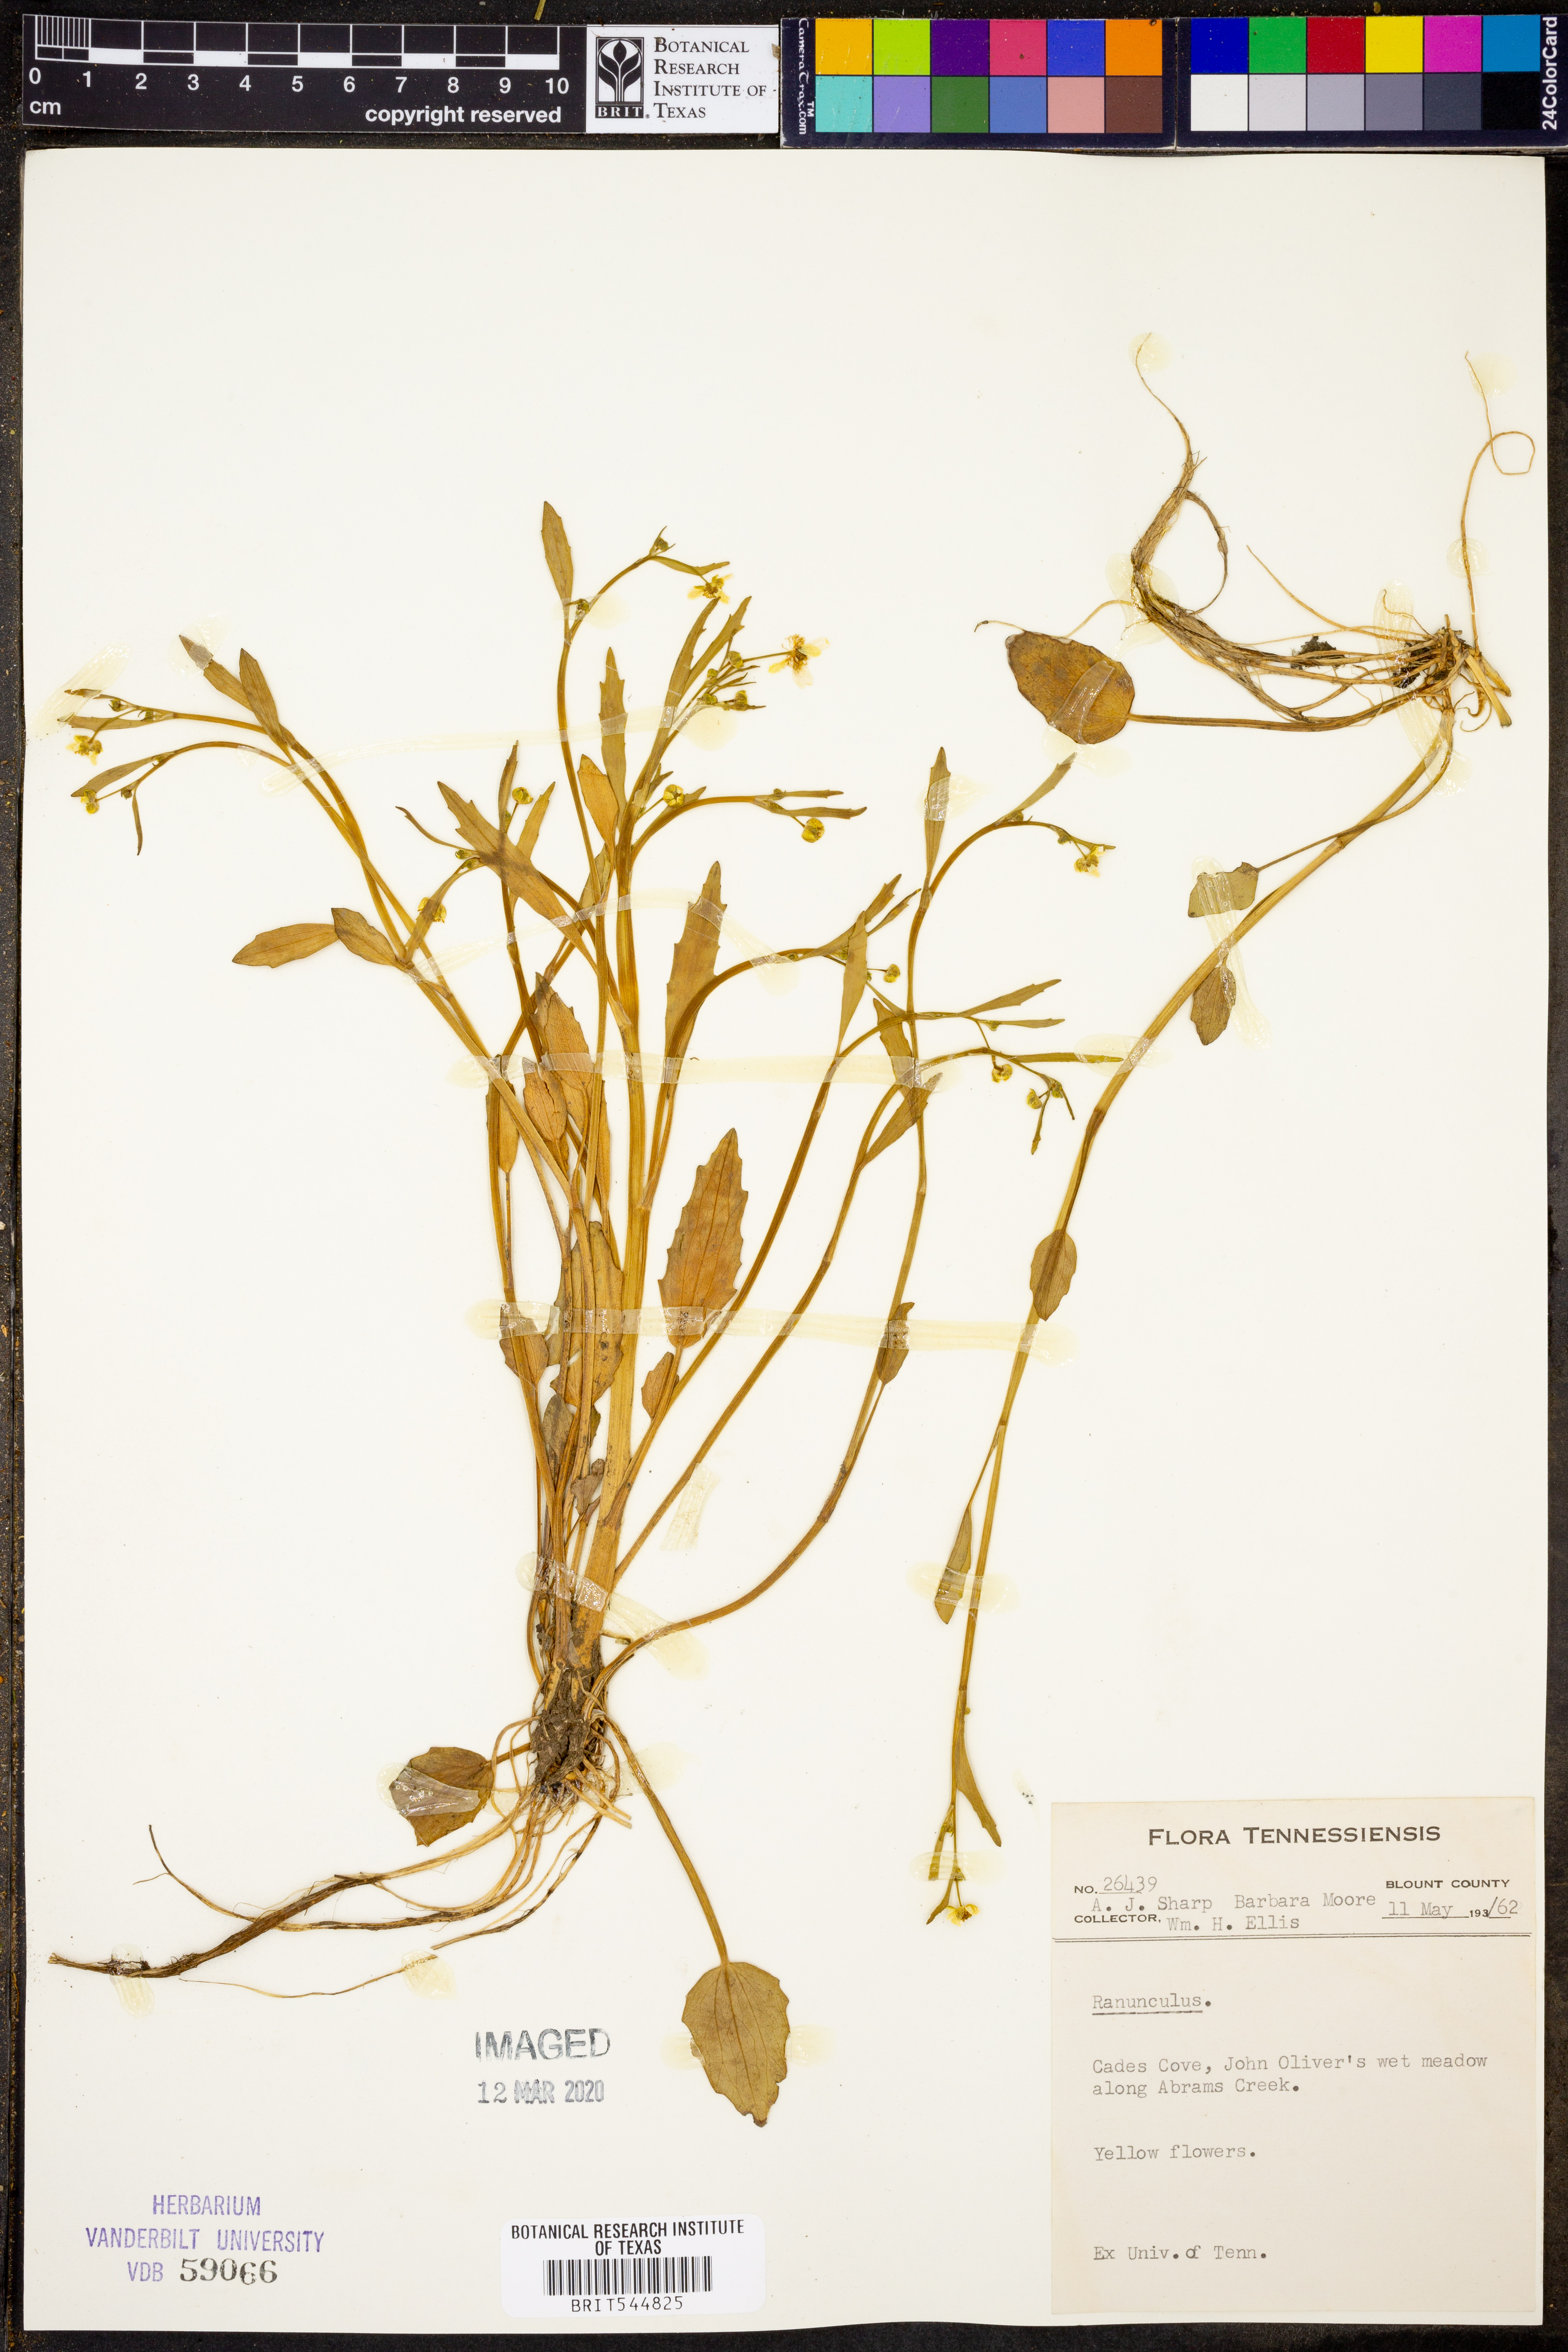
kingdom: Plantae
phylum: Tracheophyta
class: Magnoliopsida
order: Ranunculales
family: Ranunculaceae
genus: Ranunculus
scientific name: Ranunculus
